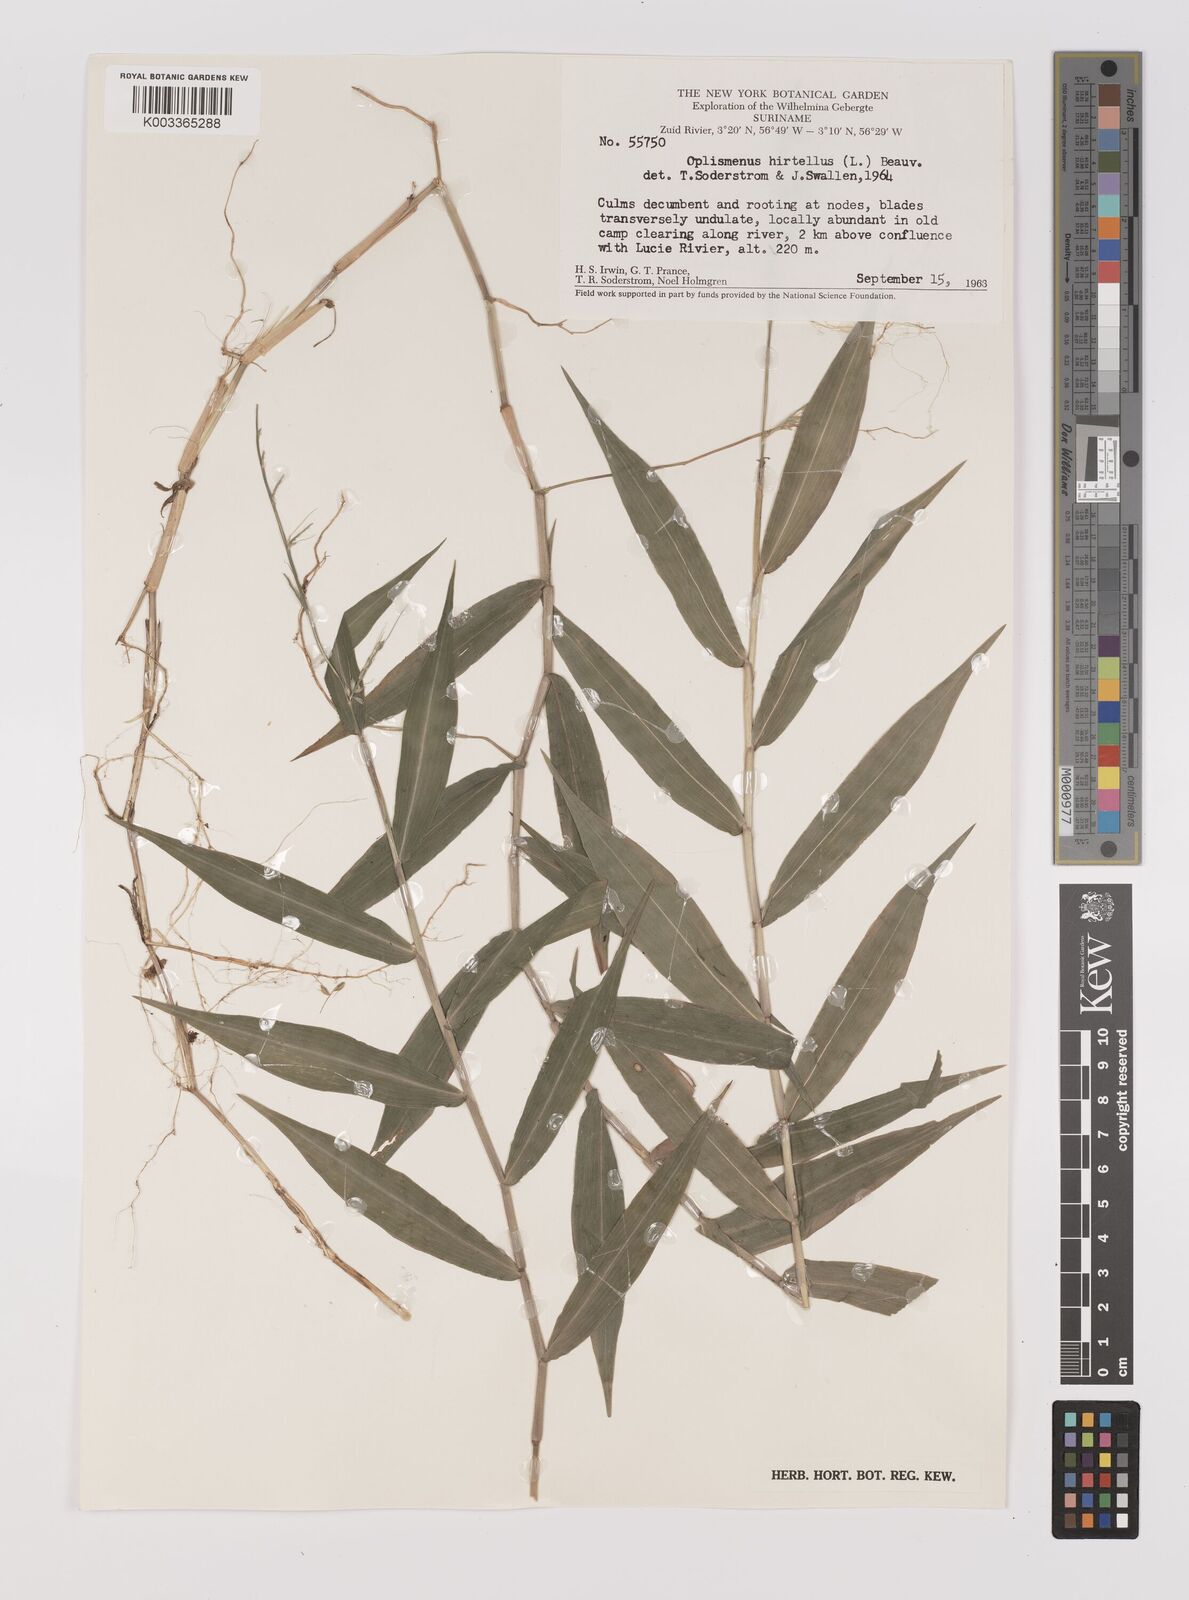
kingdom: Plantae
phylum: Tracheophyta
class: Liliopsida
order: Poales
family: Poaceae
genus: Oplismenus
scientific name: Oplismenus hirtellus
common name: Basketgrass
